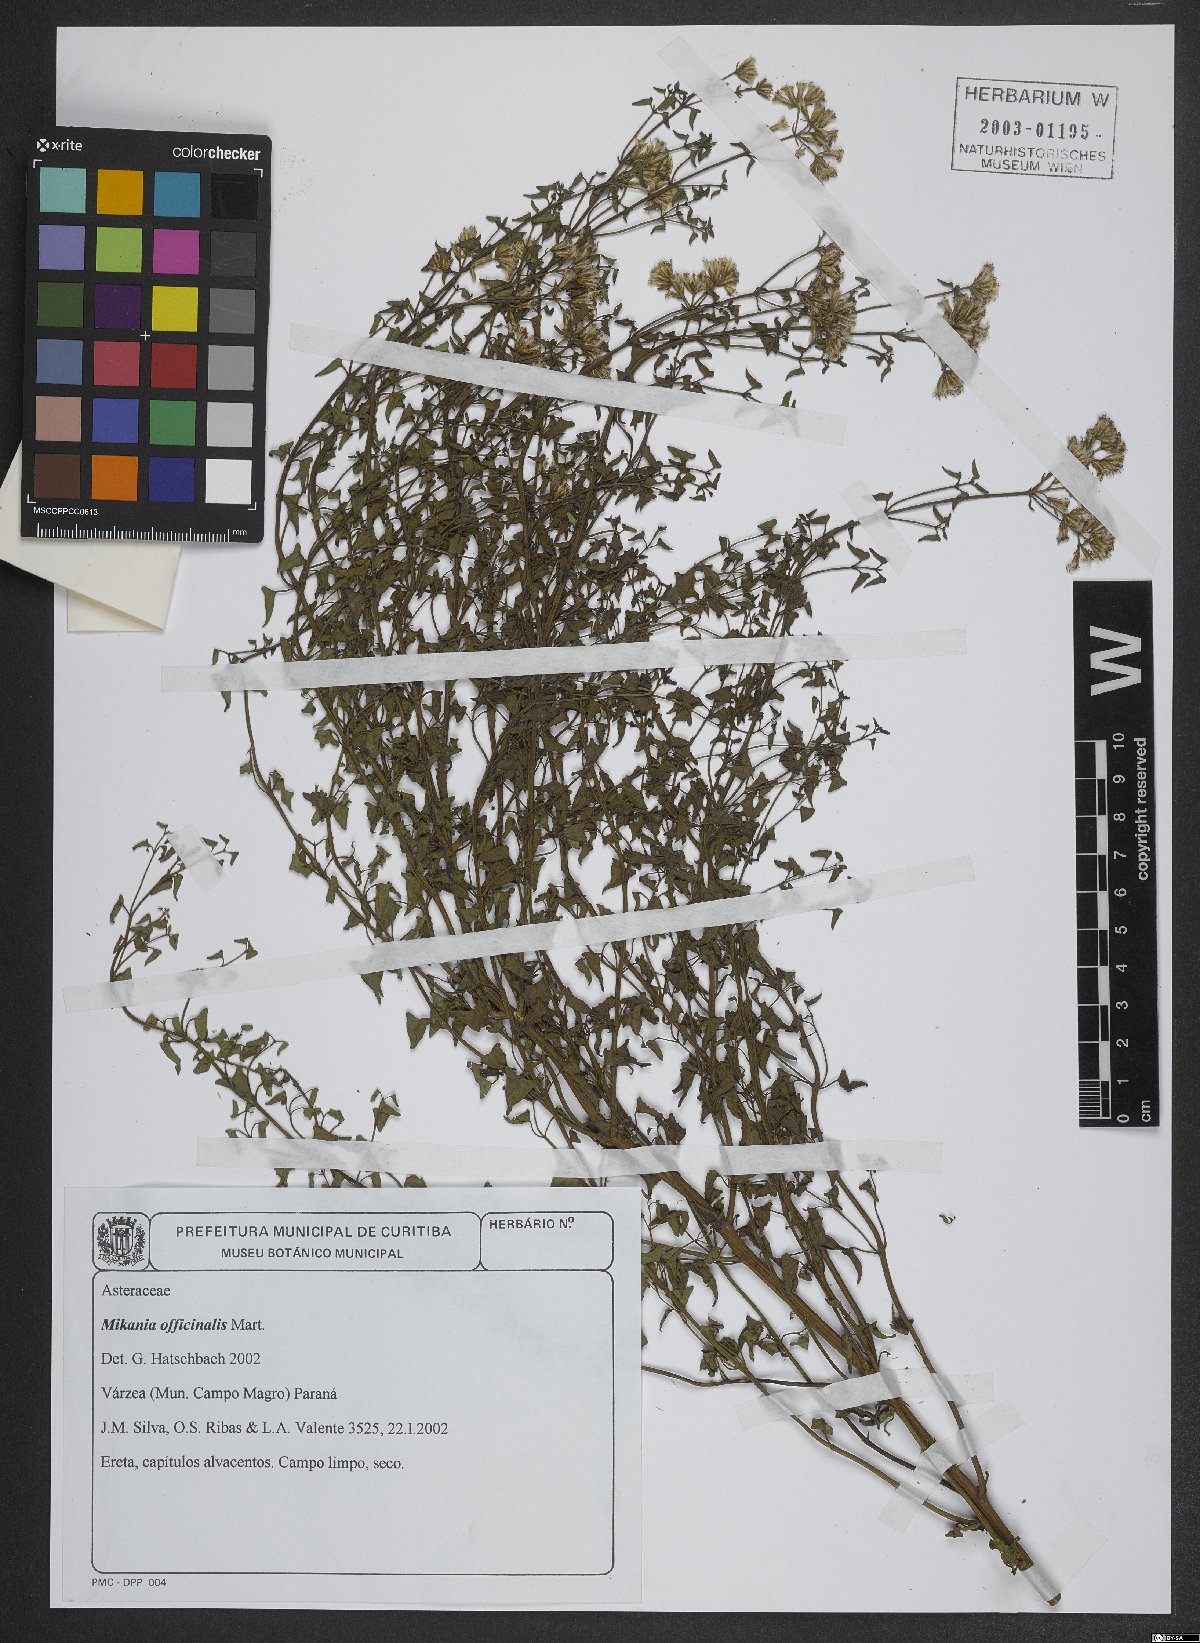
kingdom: Plantae
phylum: Tracheophyta
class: Magnoliopsida
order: Asterales
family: Asteraceae
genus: Mikania
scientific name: Mikania officinalis
